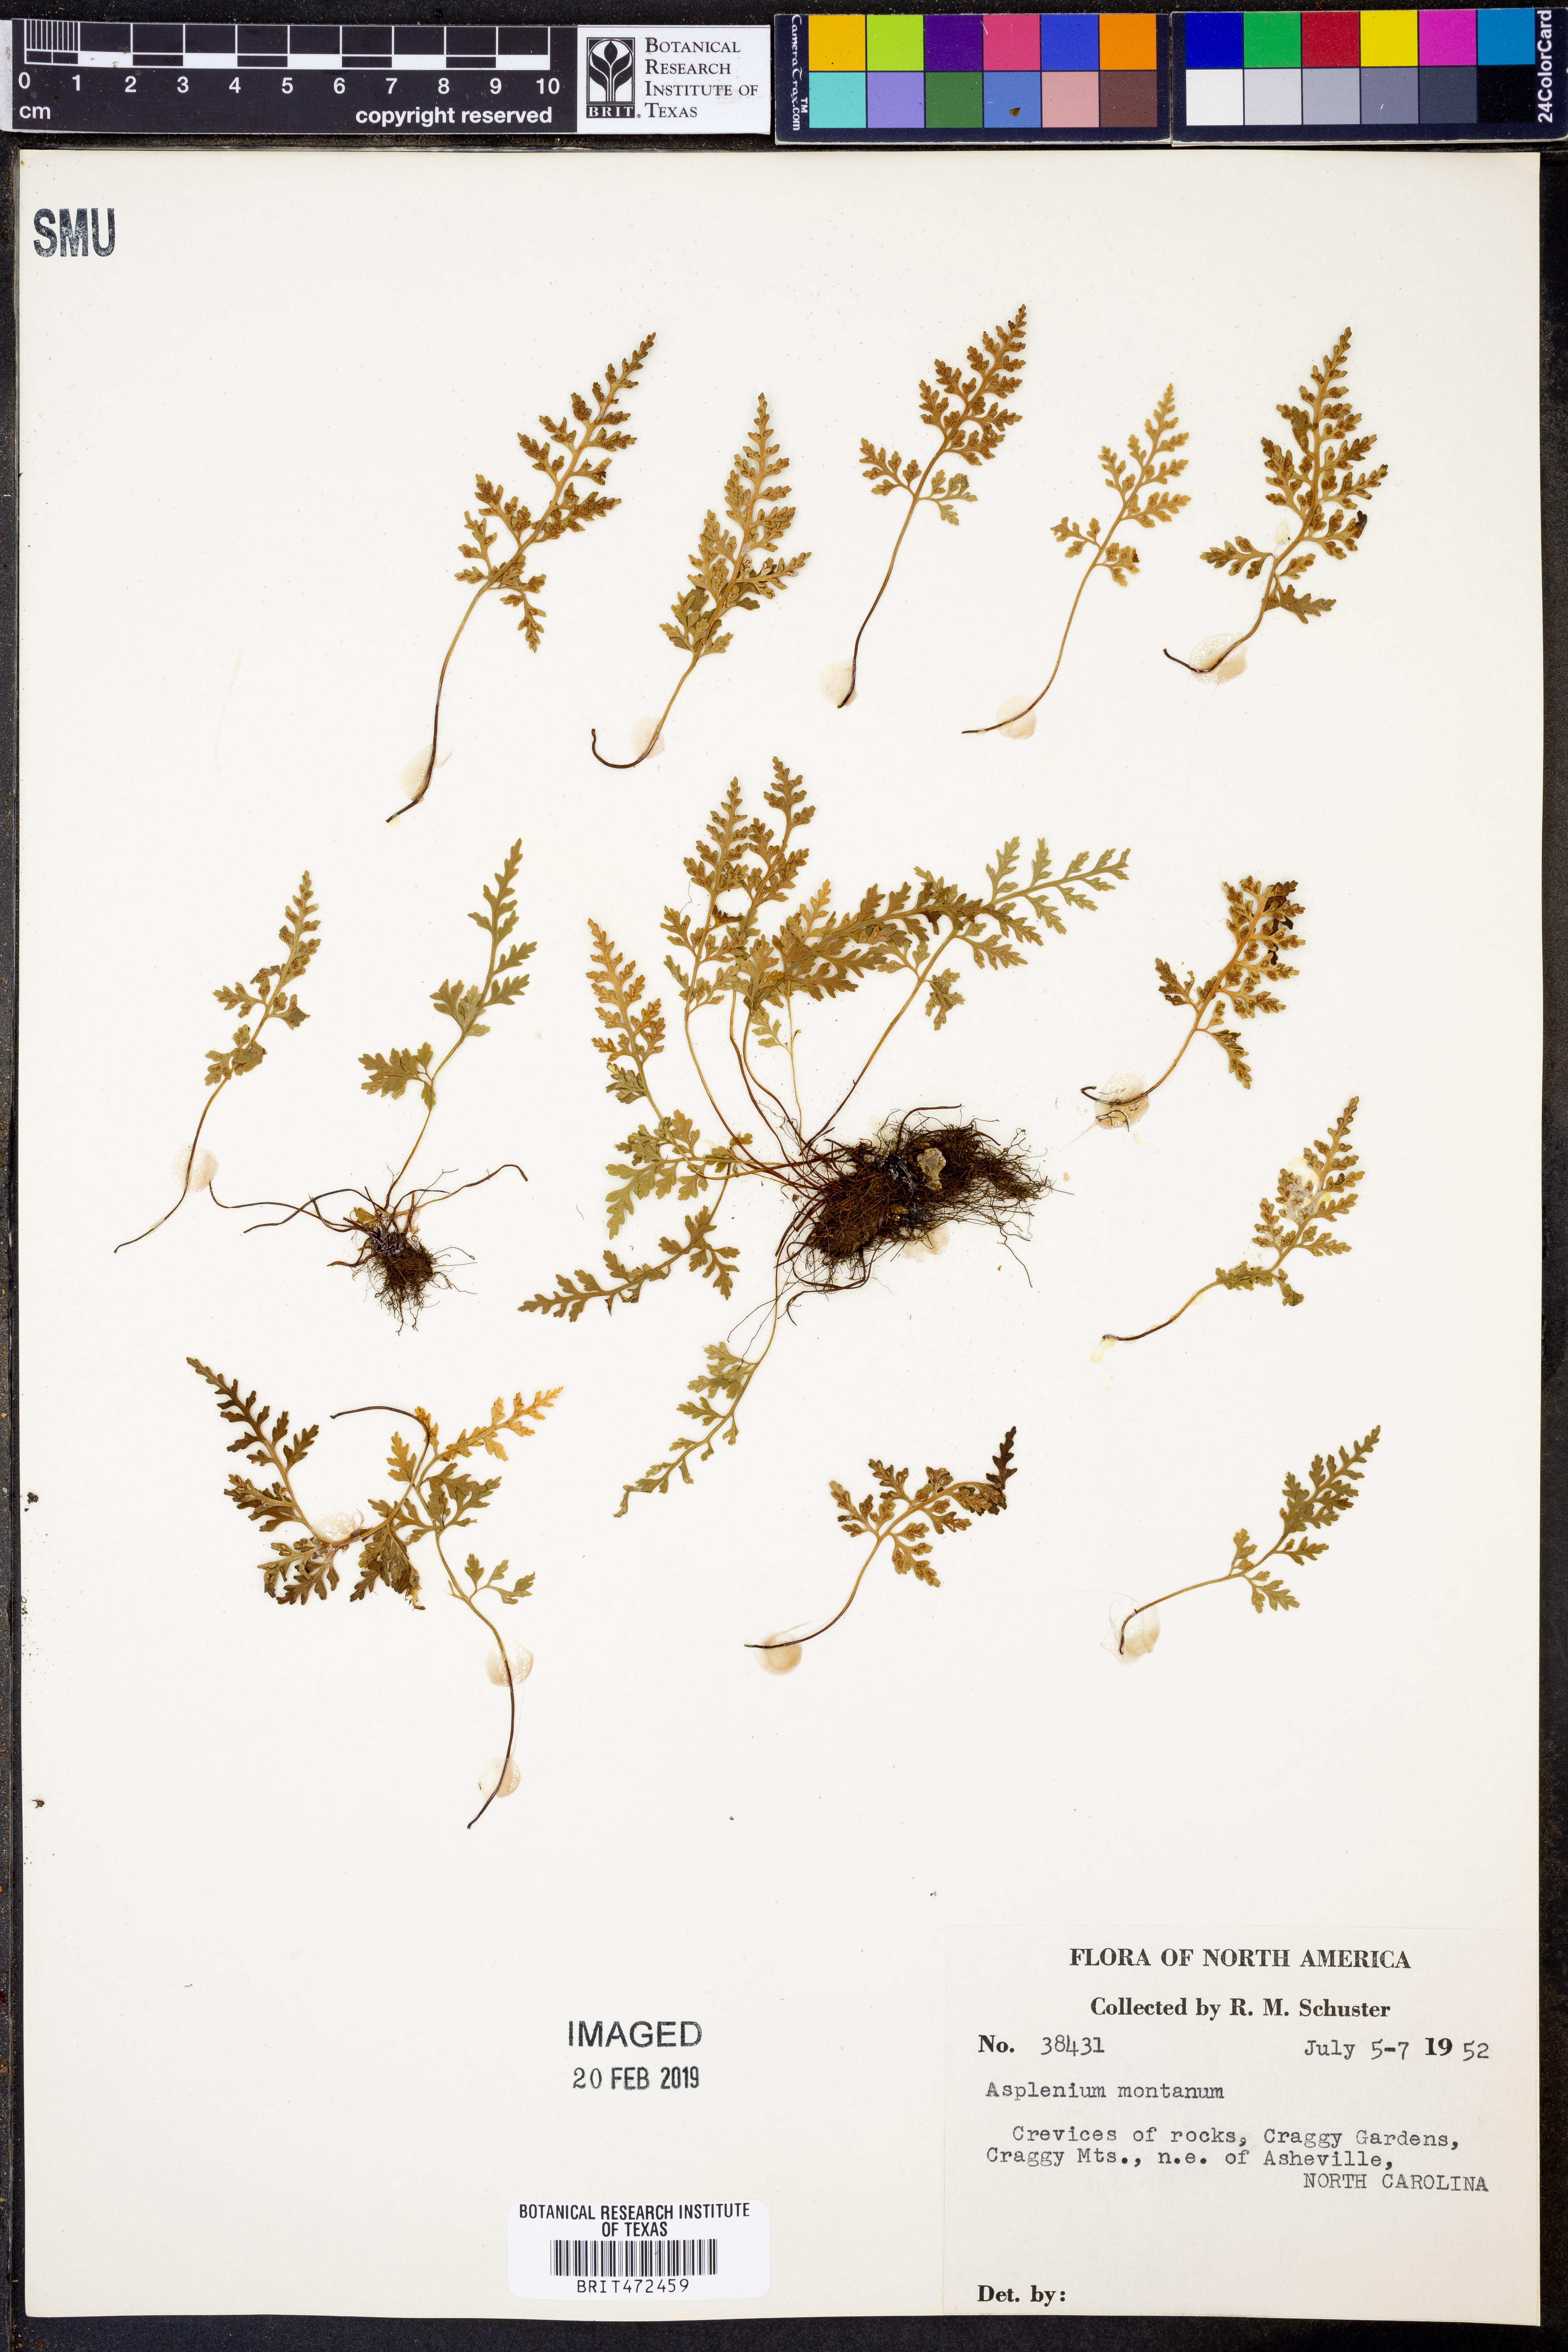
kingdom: Plantae
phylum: Tracheophyta
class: Polypodiopsida
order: Polypodiales
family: Aspleniaceae
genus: Asplenium
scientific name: Asplenium montanum
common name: Mountain spleenwort
